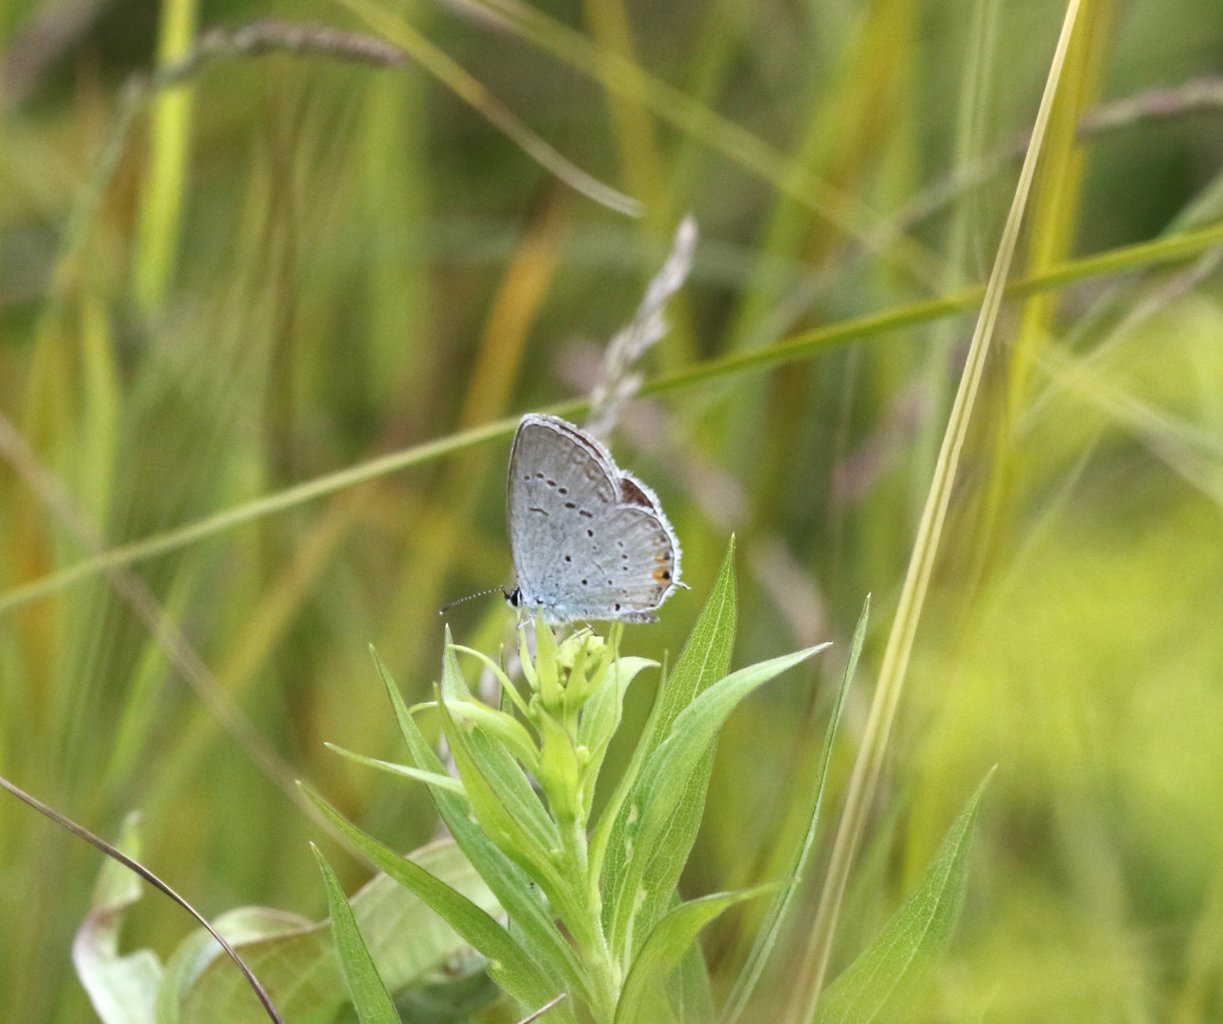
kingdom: Animalia
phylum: Arthropoda
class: Insecta
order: Lepidoptera
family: Lycaenidae
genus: Elkalyce
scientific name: Elkalyce comyntas
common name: Eastern Tailed-Blue
